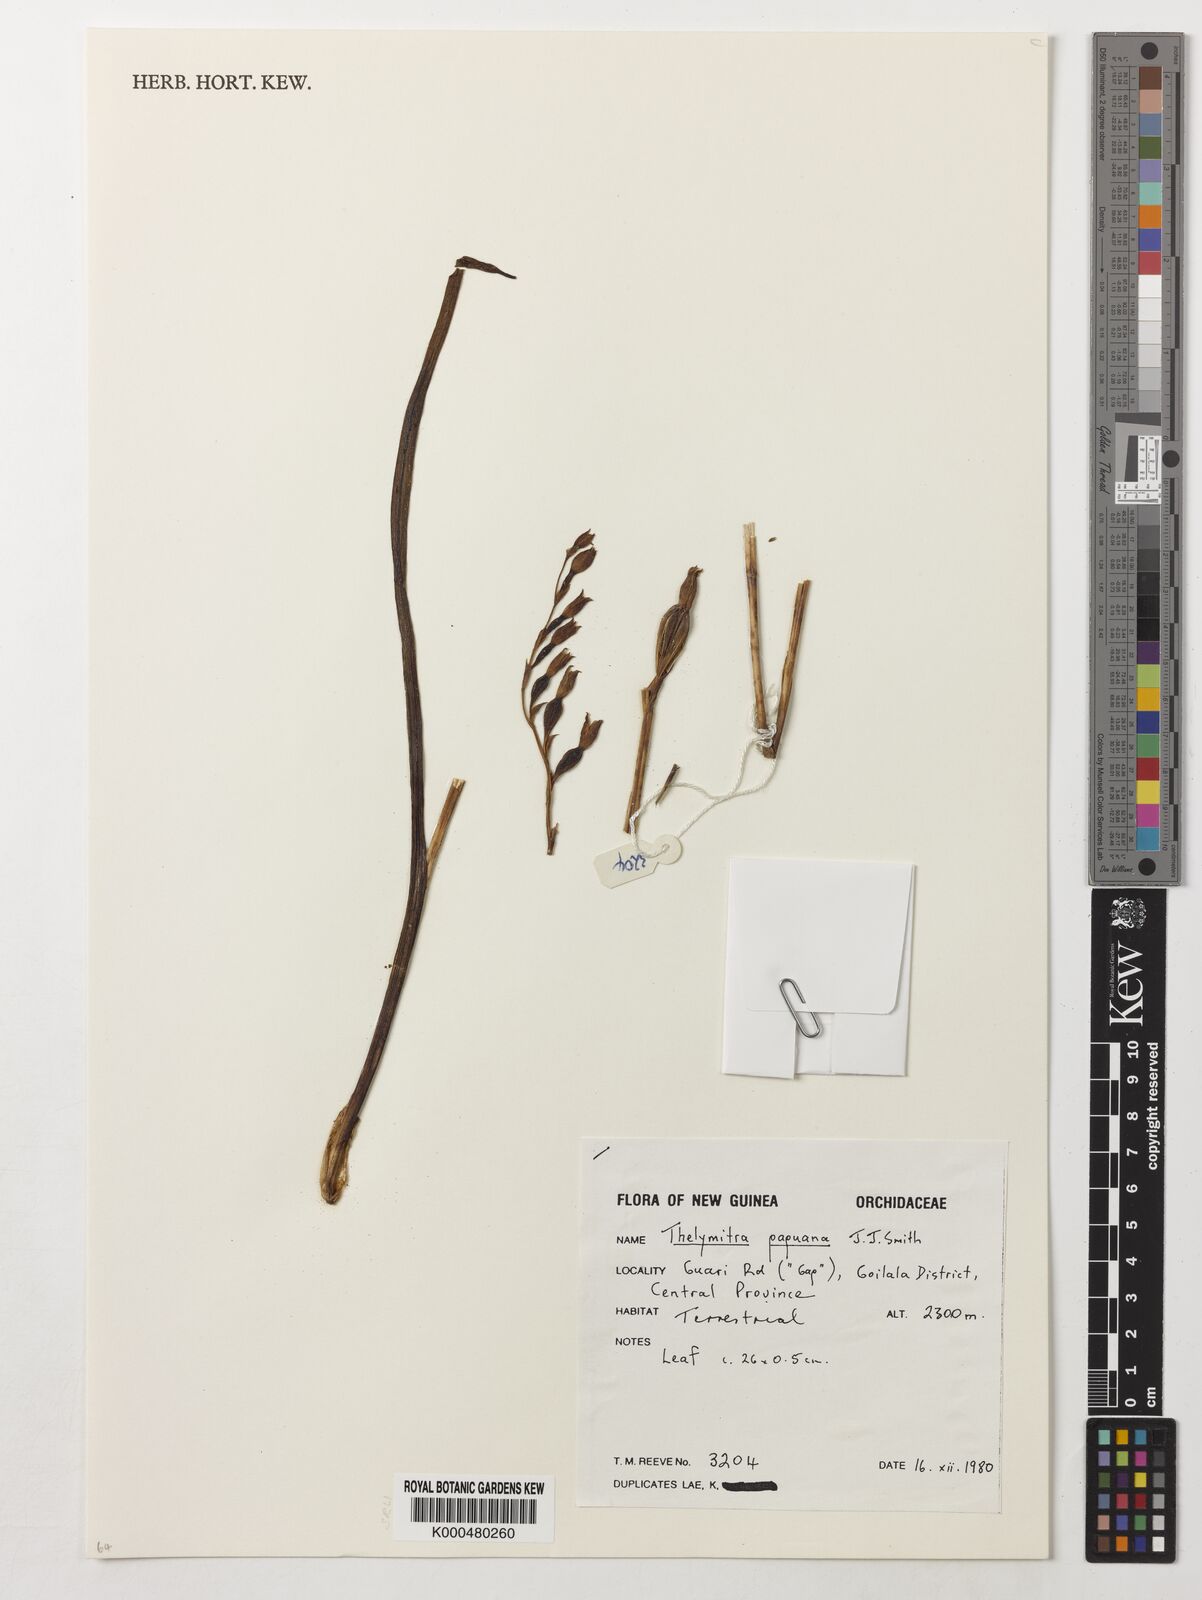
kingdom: Plantae
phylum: Tracheophyta
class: Liliopsida
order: Asparagales
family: Orchidaceae
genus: Thelymitra
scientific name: Thelymitra papuana
